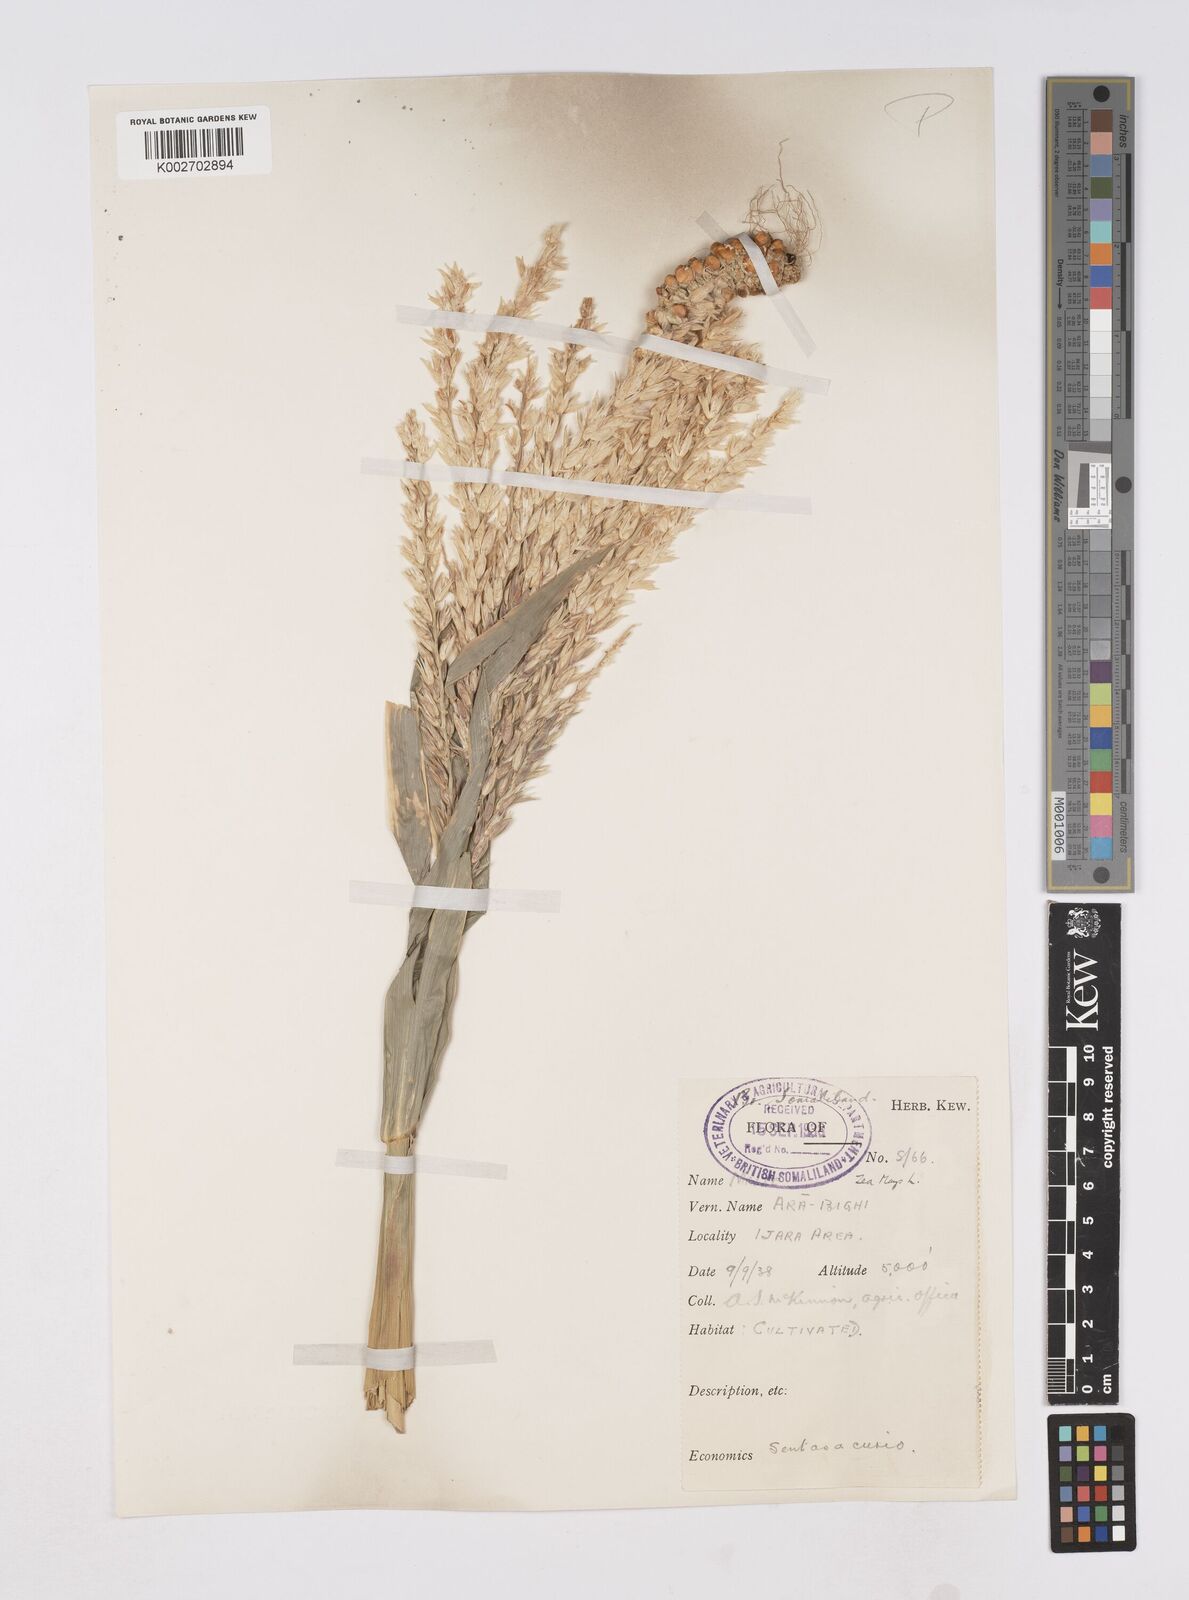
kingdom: Plantae
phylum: Tracheophyta
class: Liliopsida
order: Poales
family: Poaceae
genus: Zea
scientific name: Zea mays
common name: Maize
